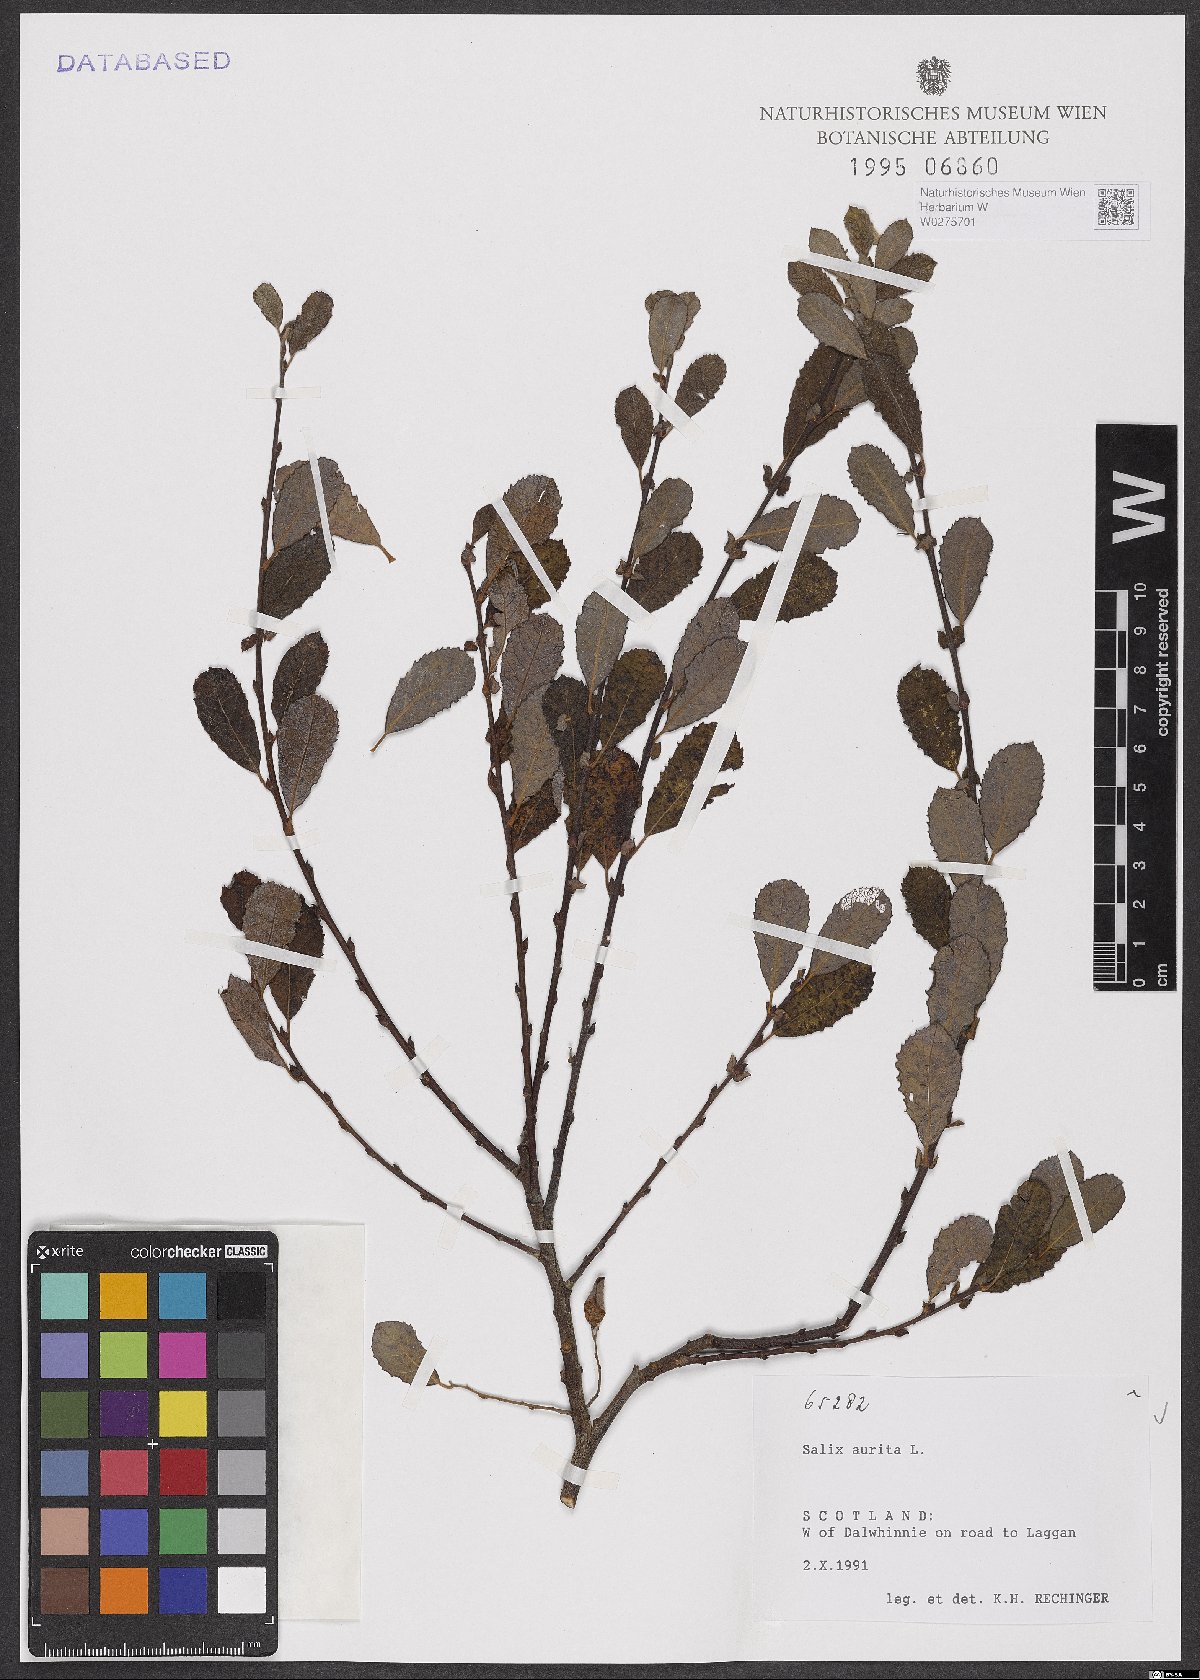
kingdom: Plantae
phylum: Tracheophyta
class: Magnoliopsida
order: Malpighiales
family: Salicaceae
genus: Salix
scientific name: Salix aurita
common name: Eared willow
